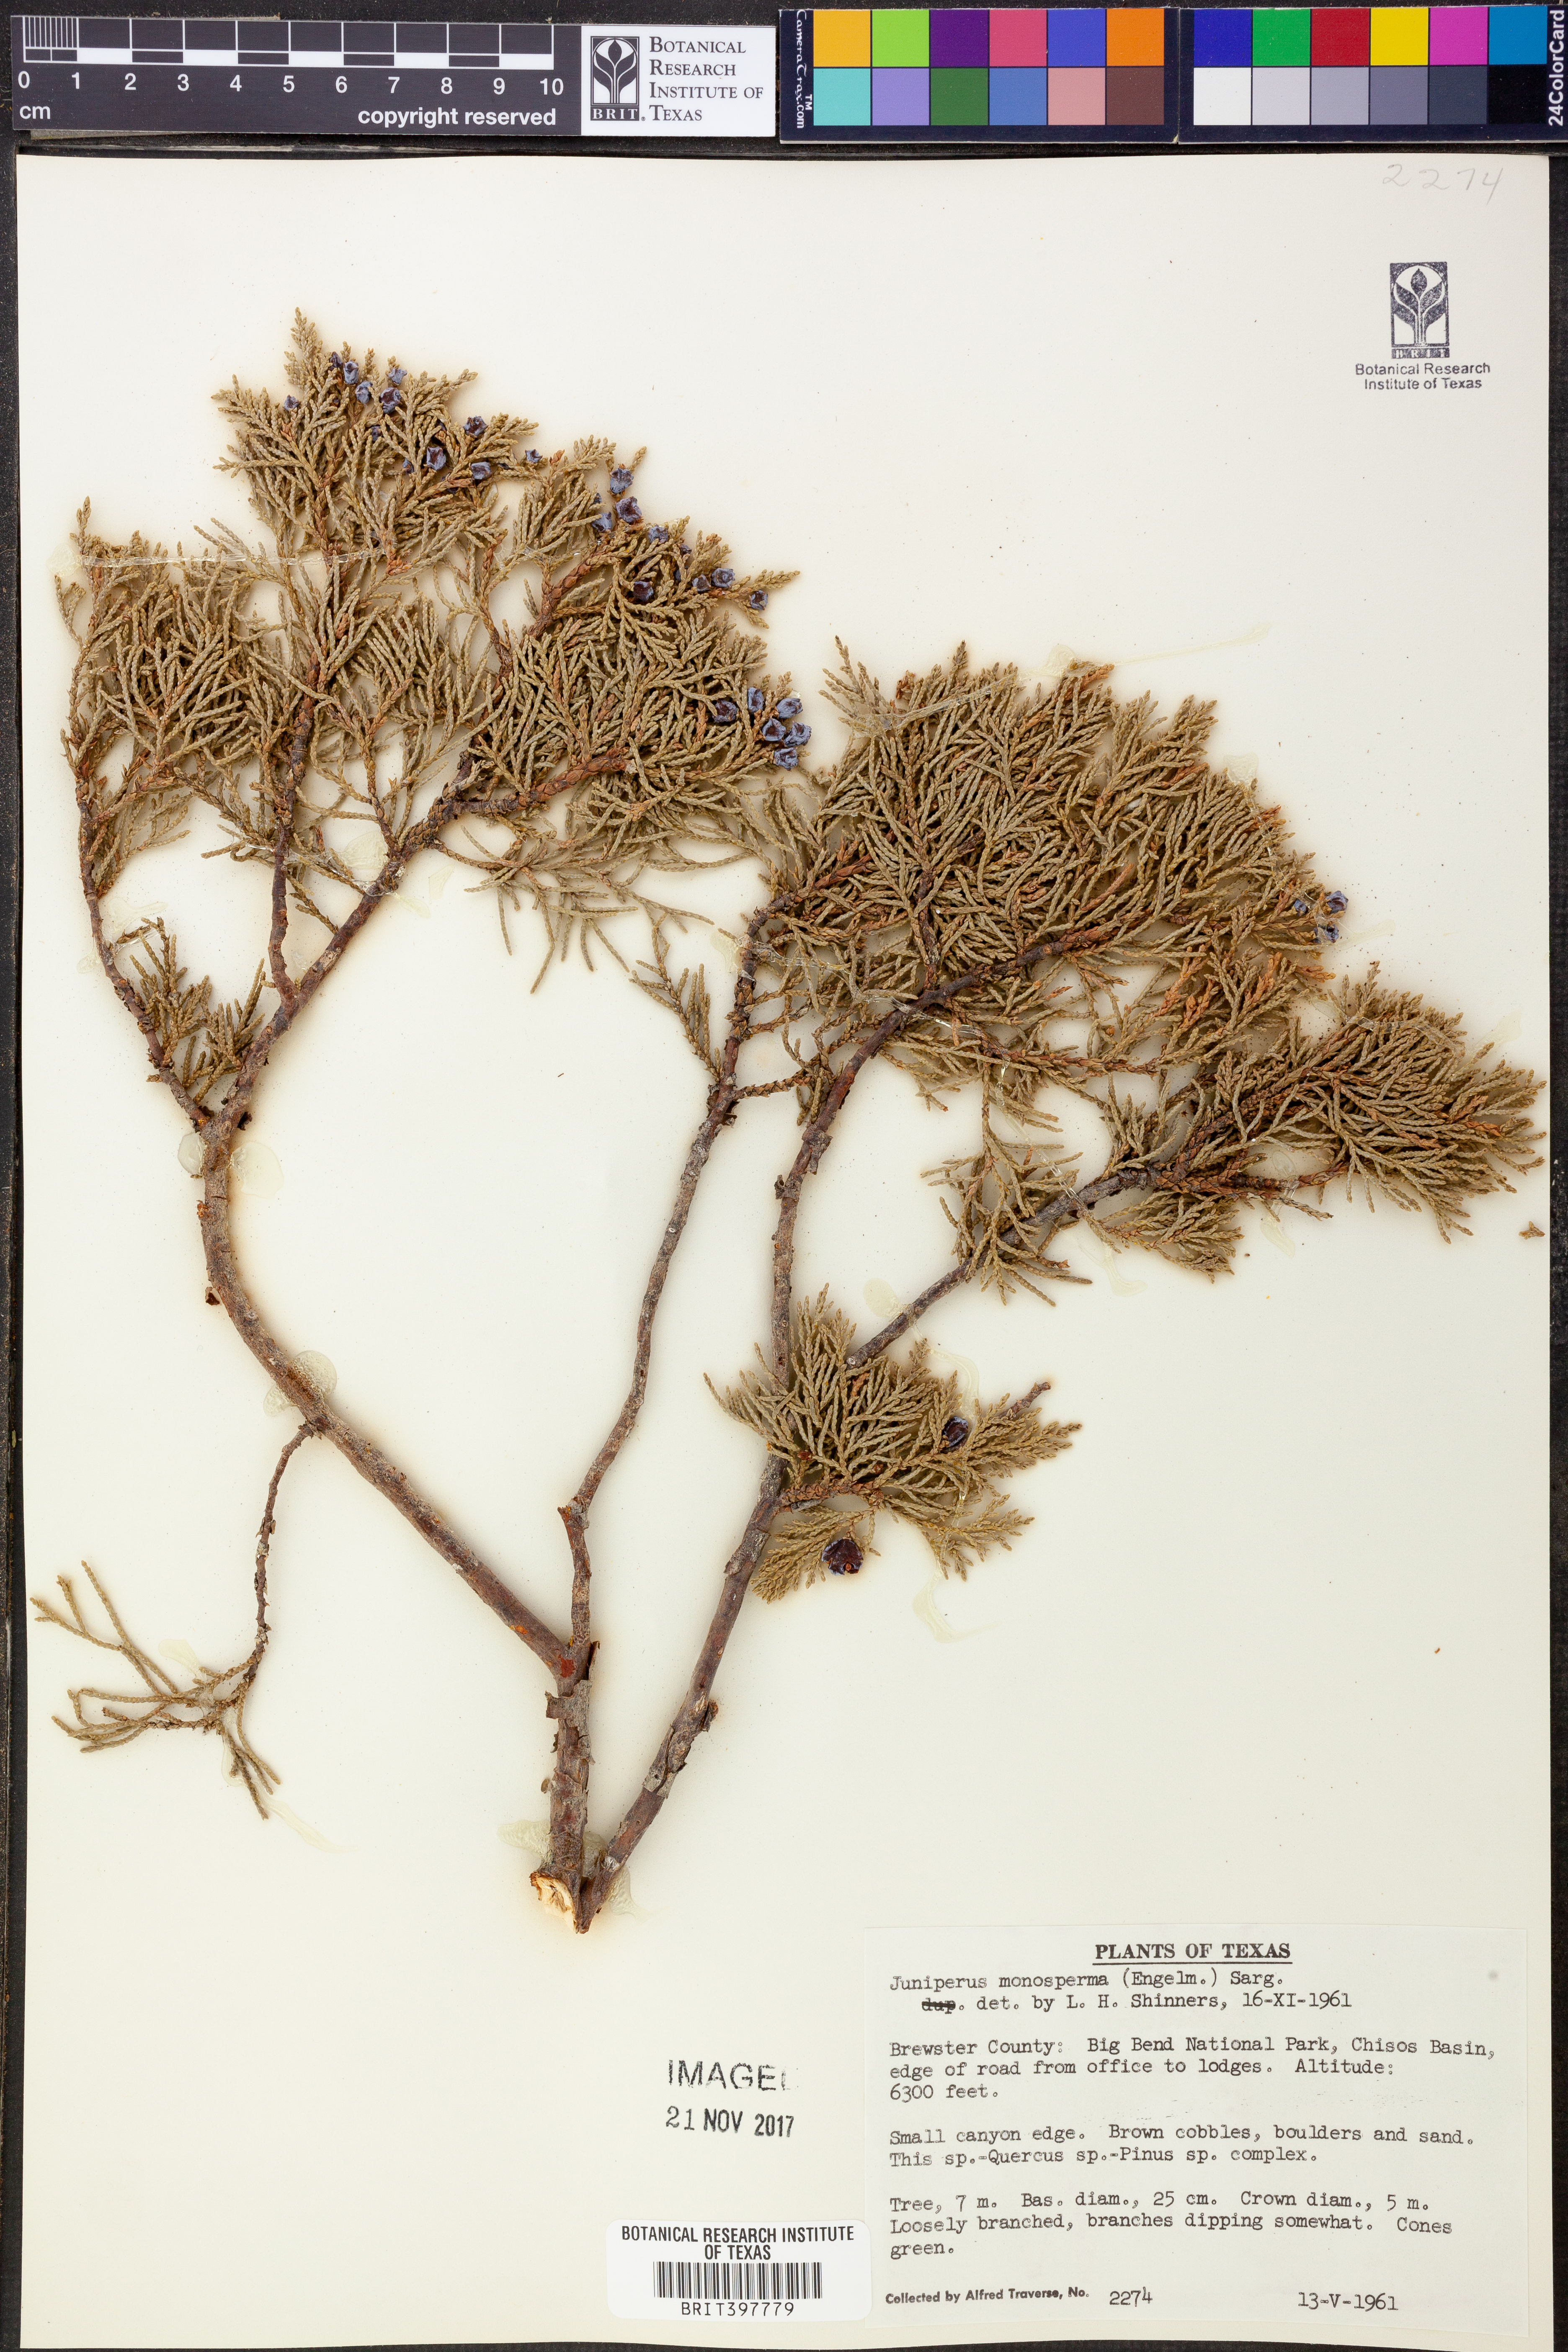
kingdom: Plantae
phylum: Tracheophyta
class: Pinopsida
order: Pinales
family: Cupressaceae
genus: Juniperus
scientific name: Juniperus monosperma
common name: One-seed juniper
